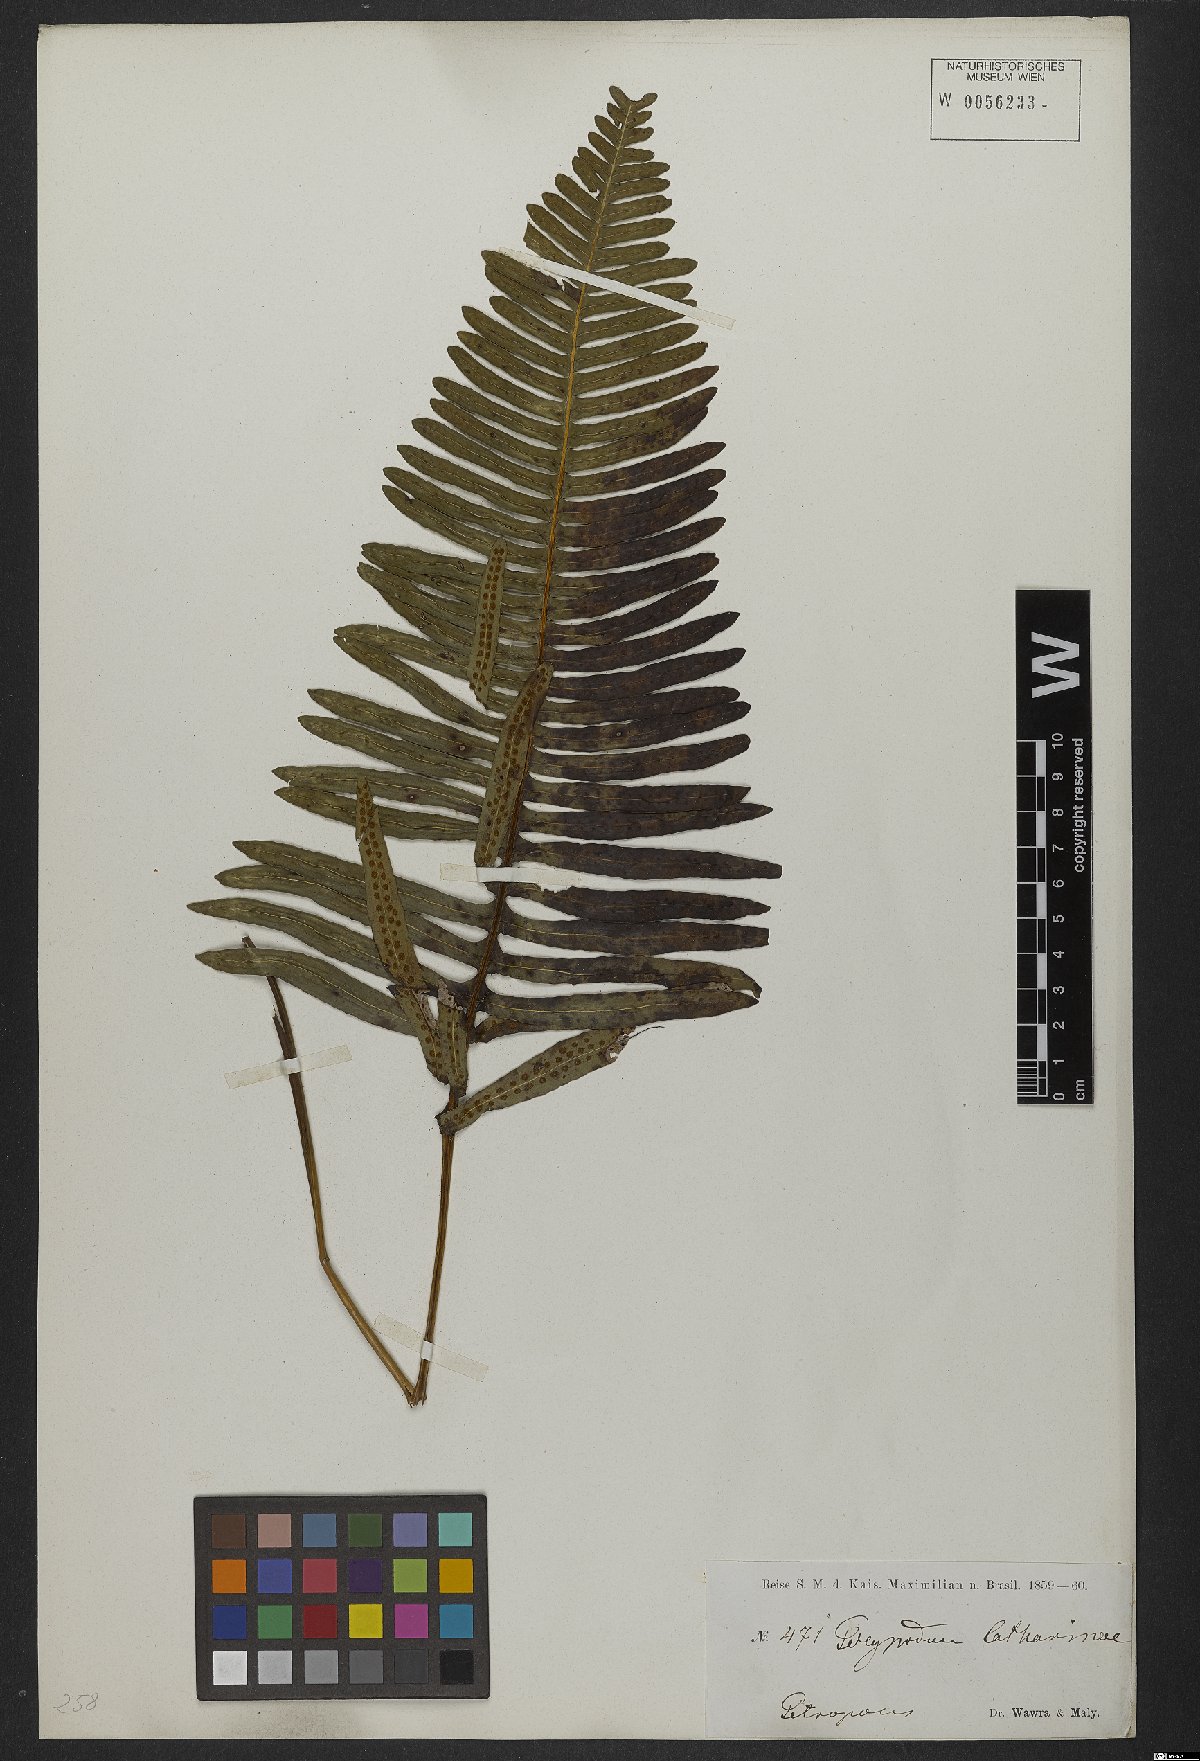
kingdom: Plantae
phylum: Tracheophyta
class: Polypodiopsida
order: Polypodiales
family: Polypodiaceae
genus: Serpocaulon
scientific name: Serpocaulon catharinae
